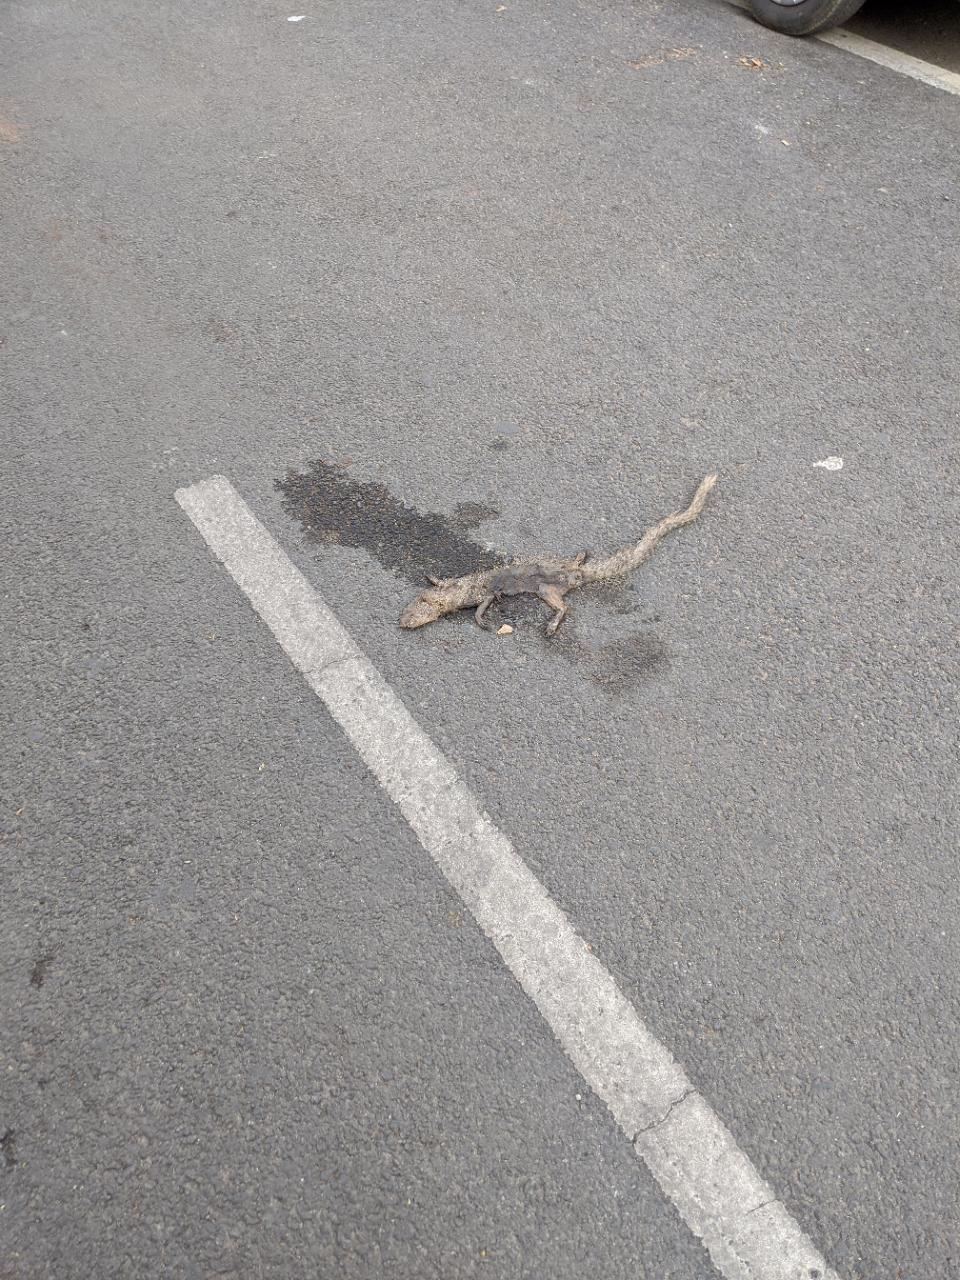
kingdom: Animalia
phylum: Chordata
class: Mammalia
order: Carnivora
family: Herpestidae
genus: Herpestes
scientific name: Herpestes edwardsi
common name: Indian gray mongoose
